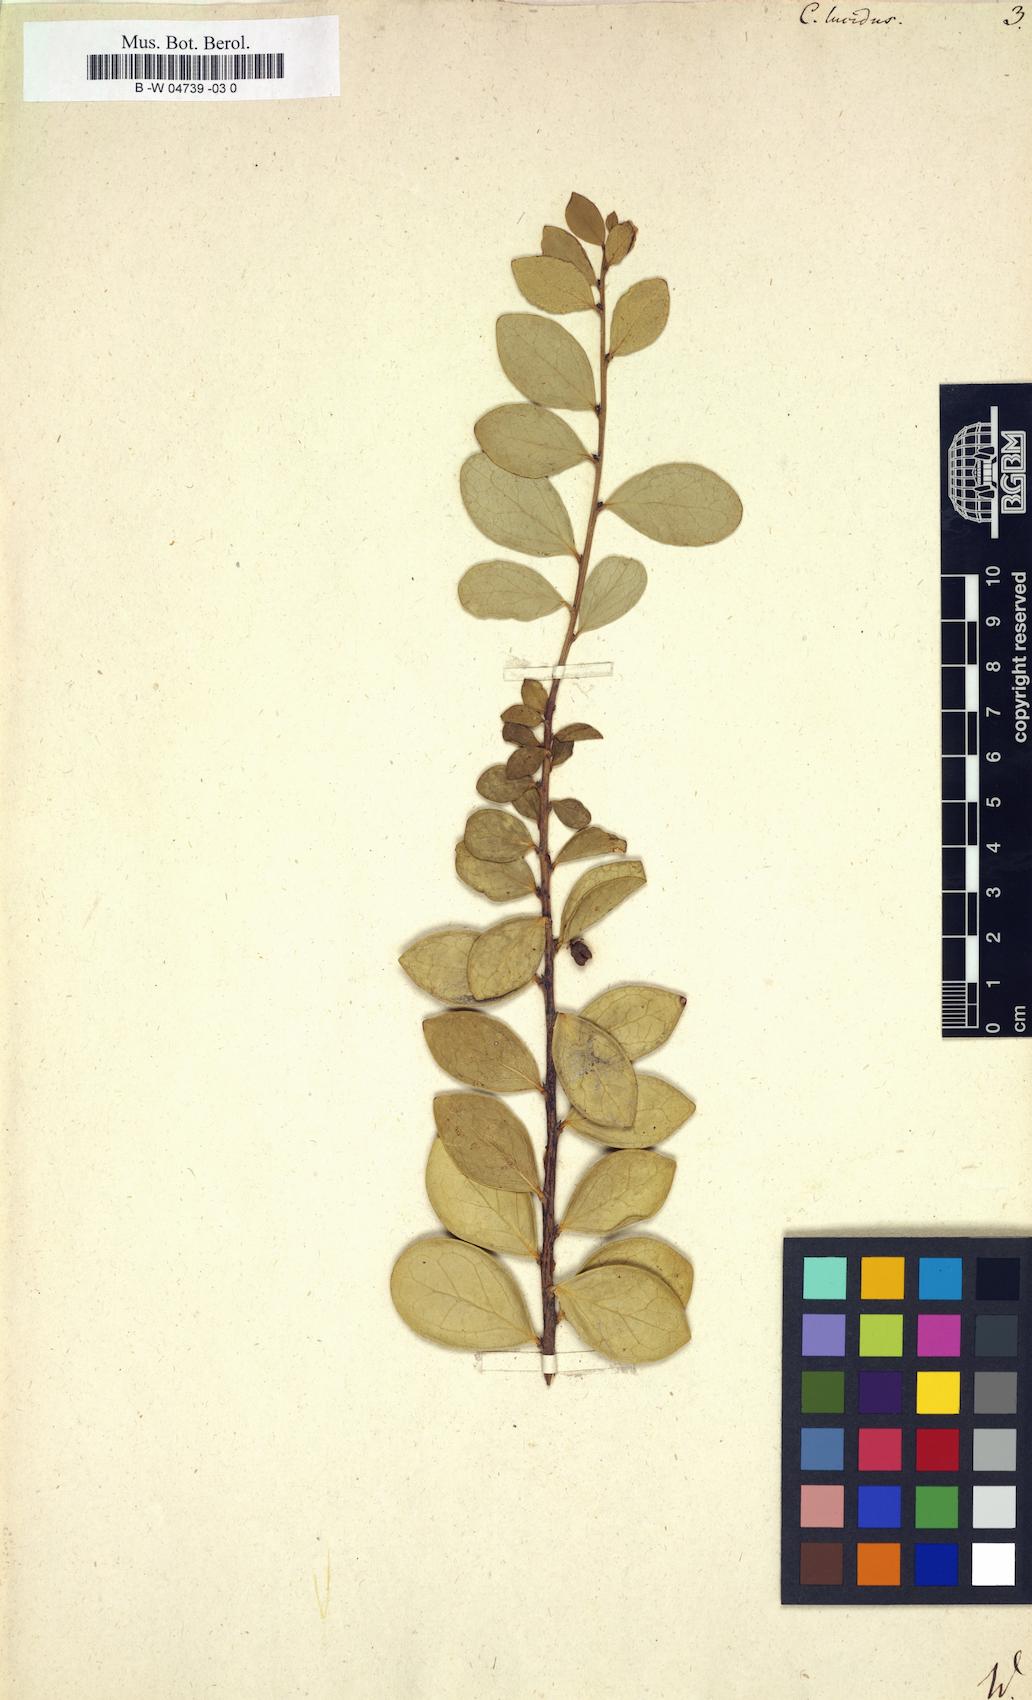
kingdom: Plantae
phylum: Tracheophyta
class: Magnoliopsida
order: Celastrales
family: Celastraceae
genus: Gymnosporia
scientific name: Gymnosporia lucida
